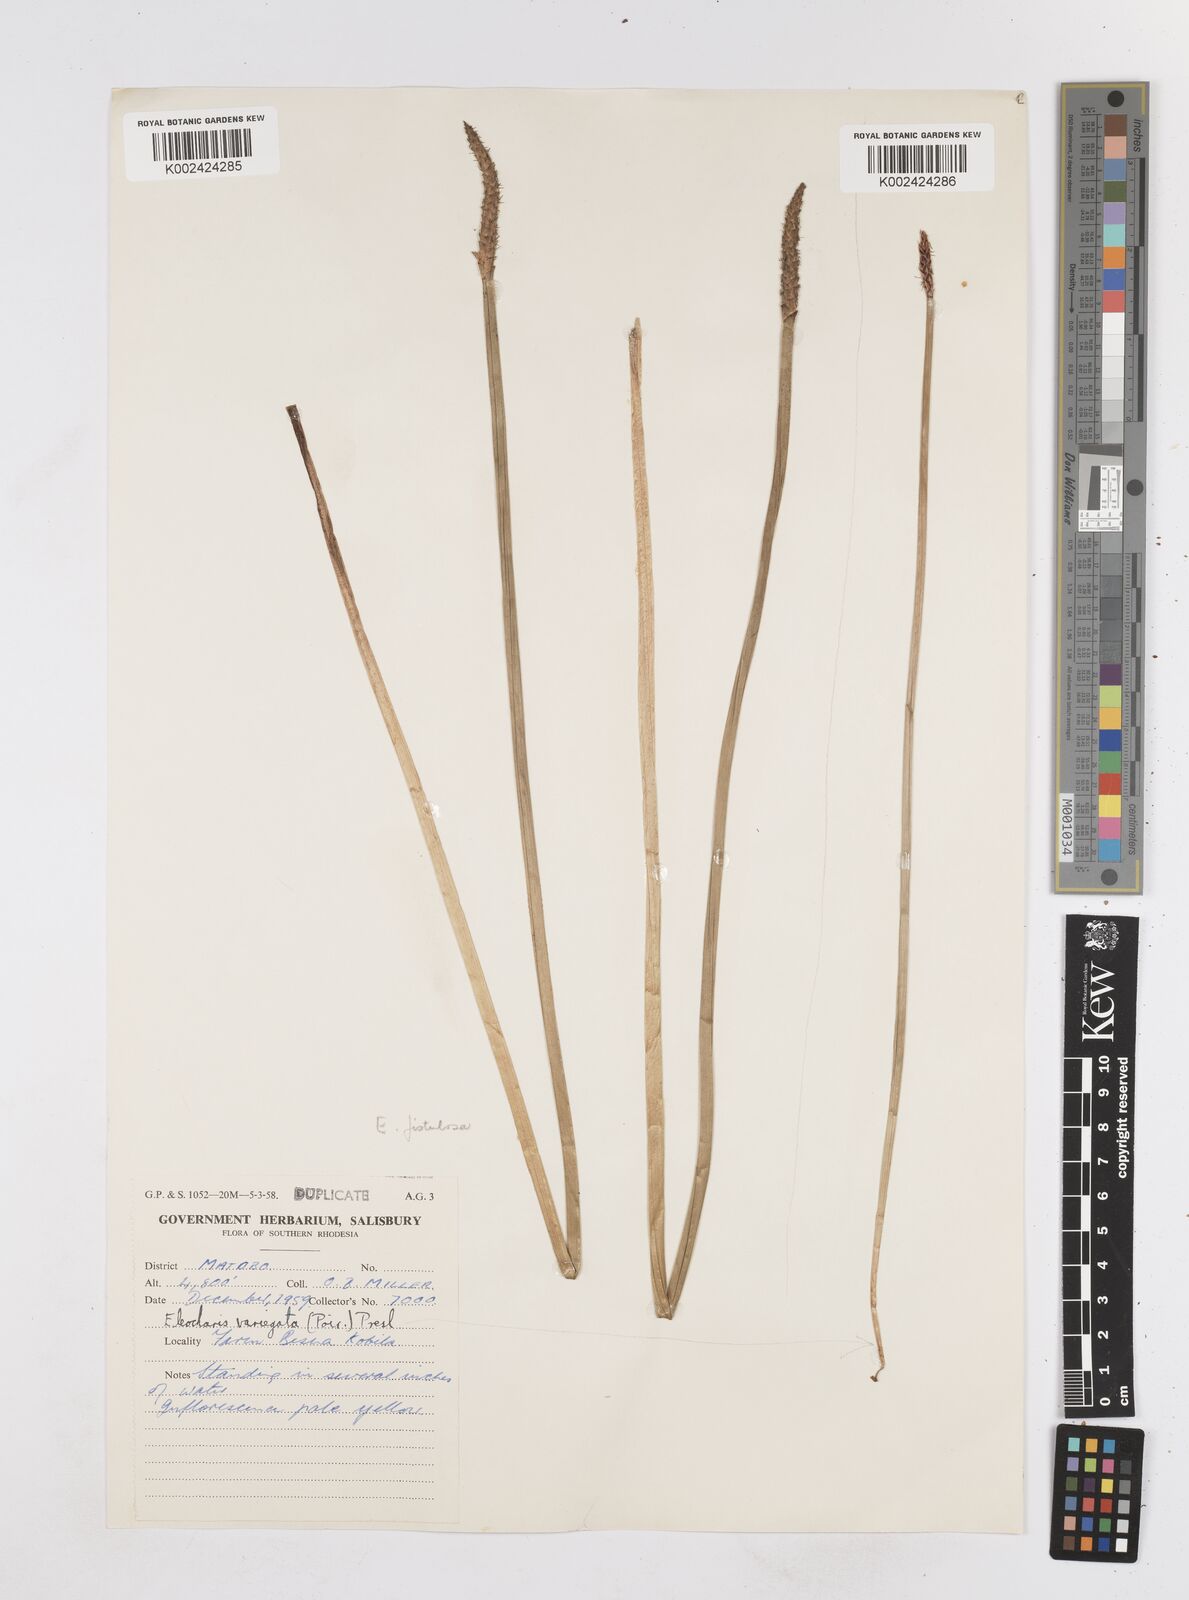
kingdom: Plantae
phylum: Tracheophyta
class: Liliopsida
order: Poales
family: Cyperaceae
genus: Eleocharis
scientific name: Eleocharis variegata
